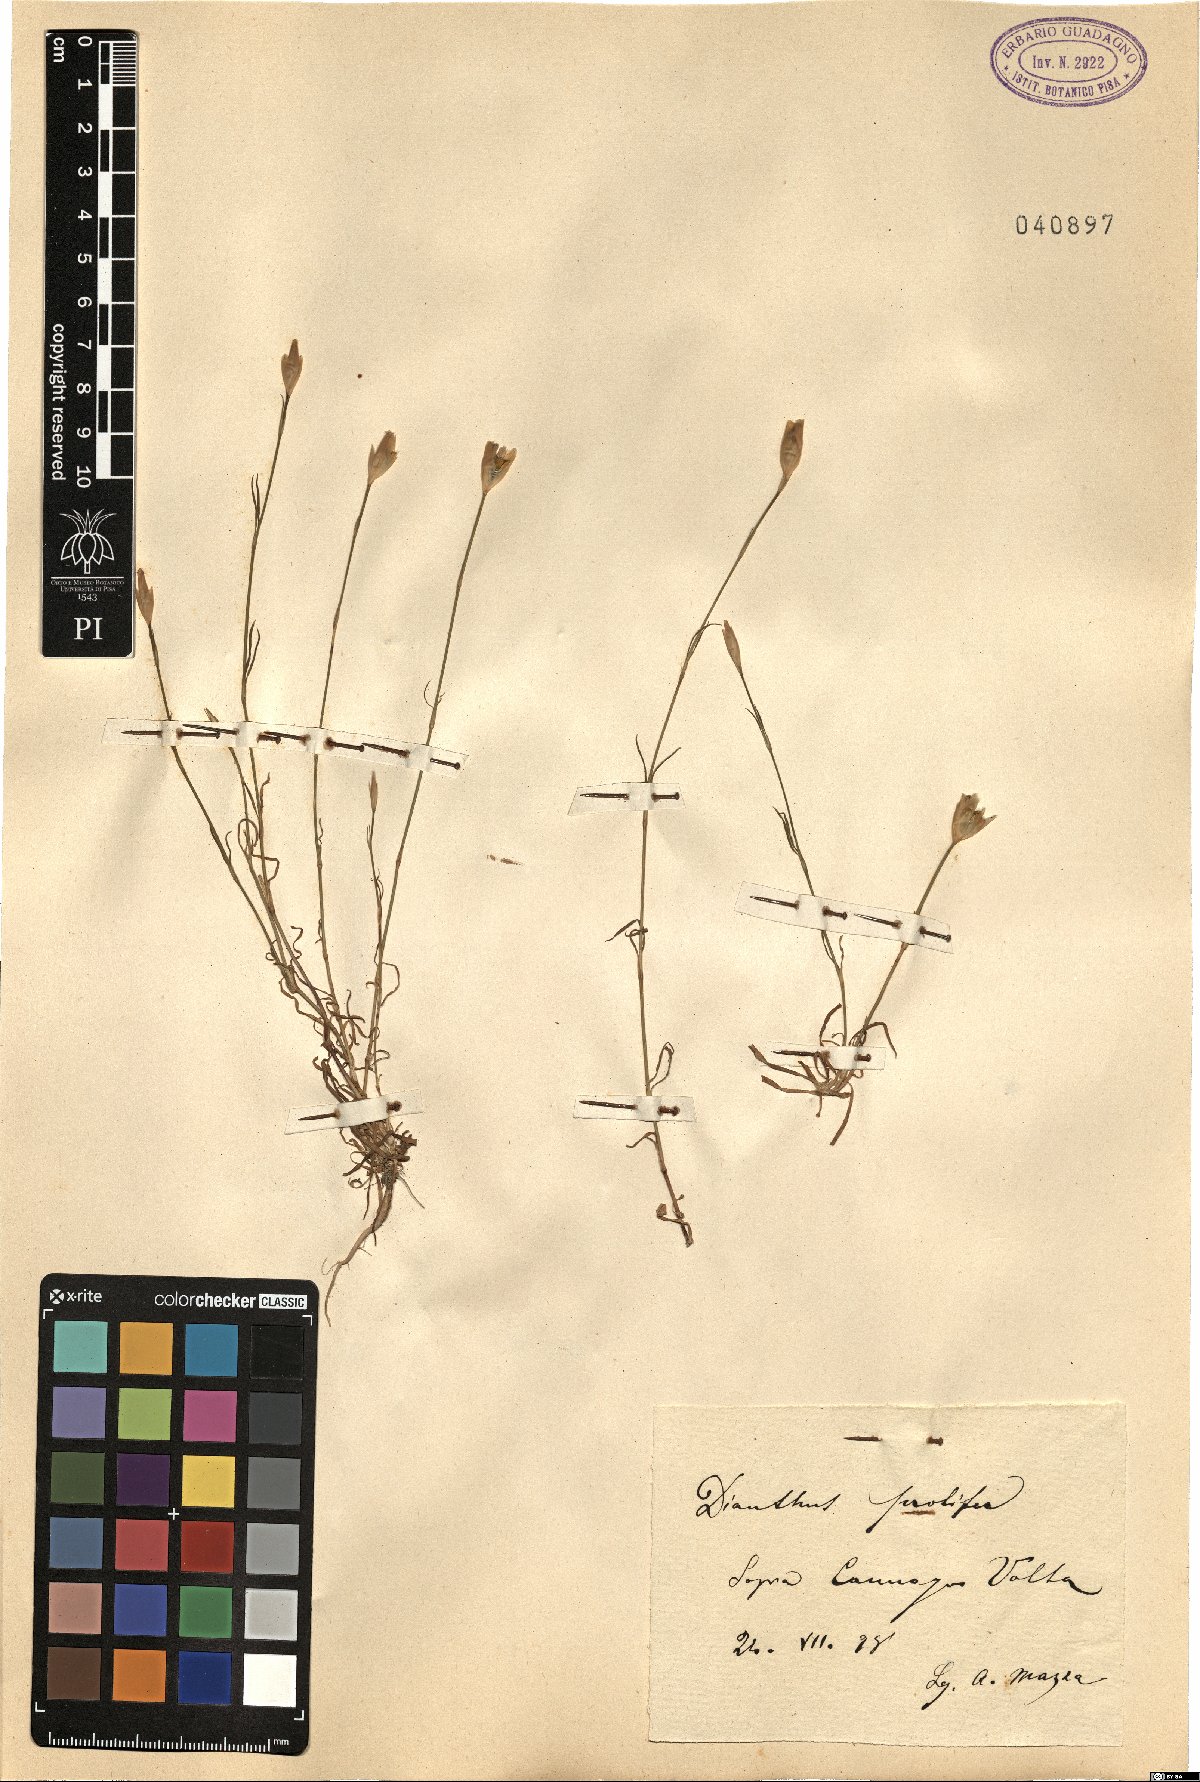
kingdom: Plantae
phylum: Tracheophyta
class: Magnoliopsida
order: Caryophyllales
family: Caryophyllaceae
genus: Petrorhagia
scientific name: Petrorhagia prolifera
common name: Proliferous pink
